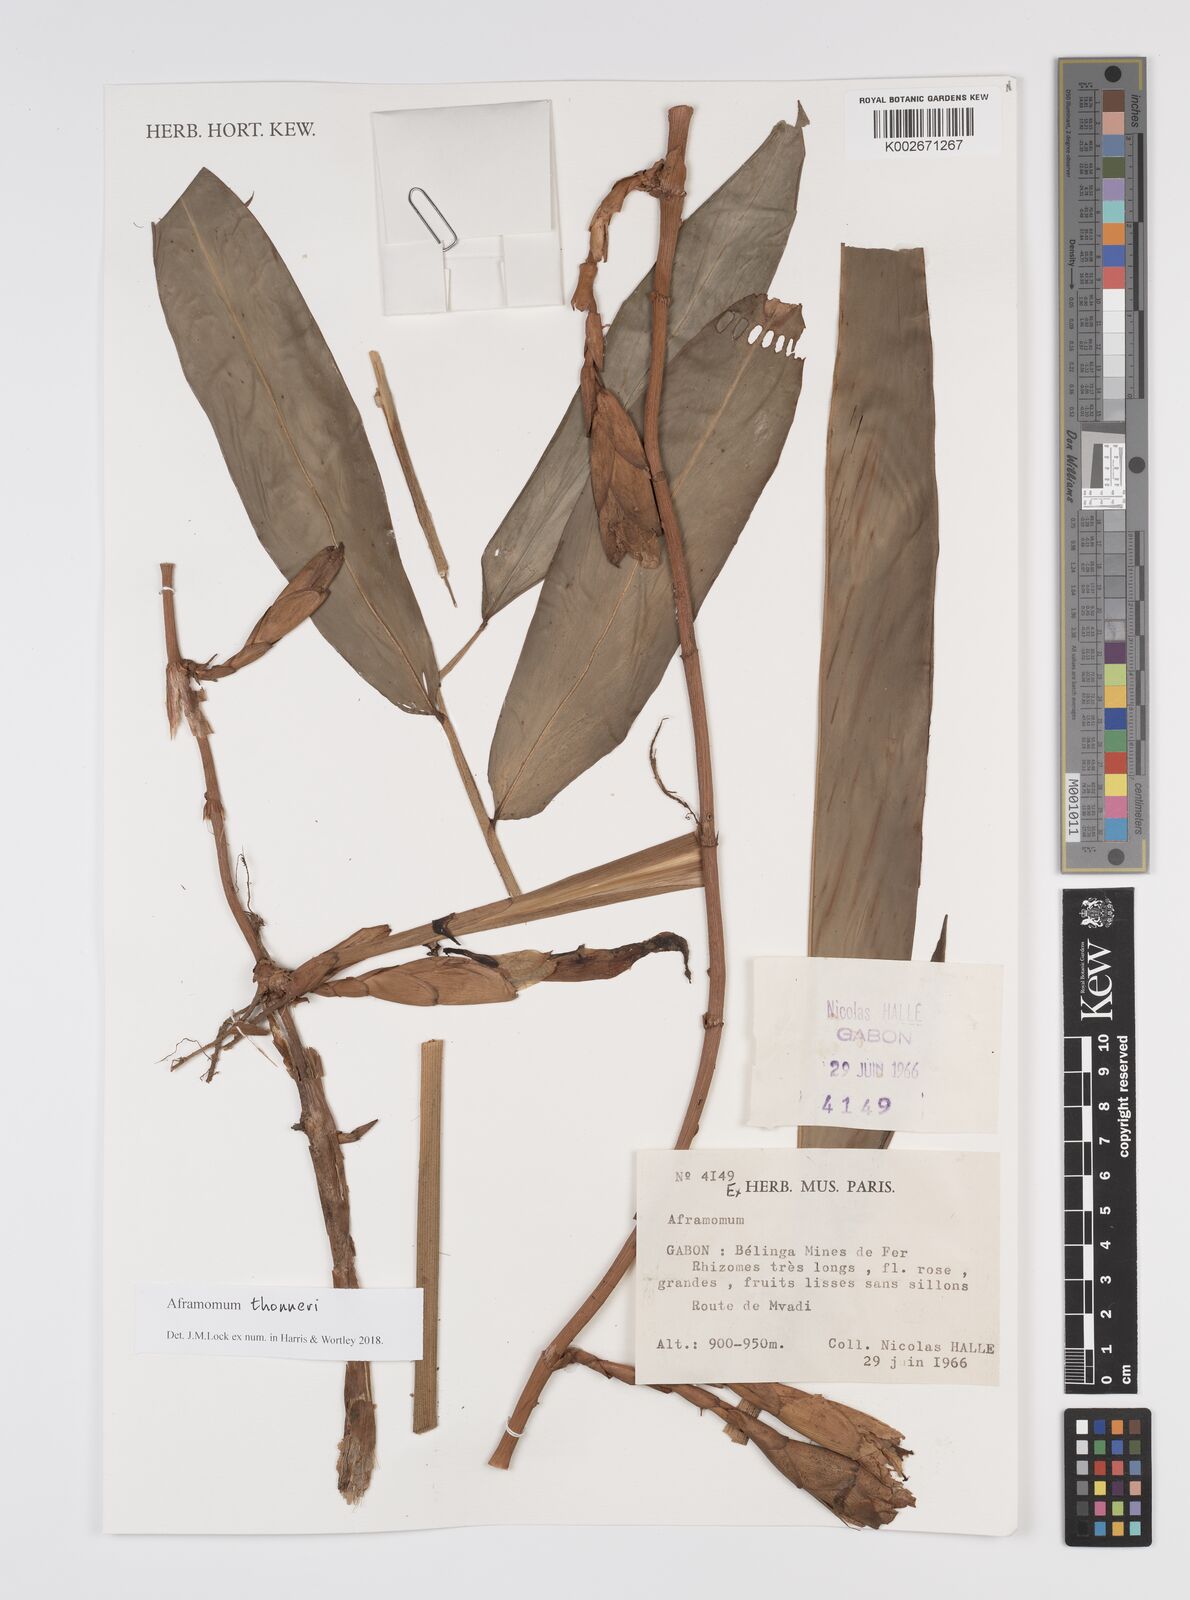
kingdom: Plantae
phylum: Tracheophyta
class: Liliopsida
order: Zingiberales
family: Zingiberaceae
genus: Aframomum
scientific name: Aframomum thonneri
